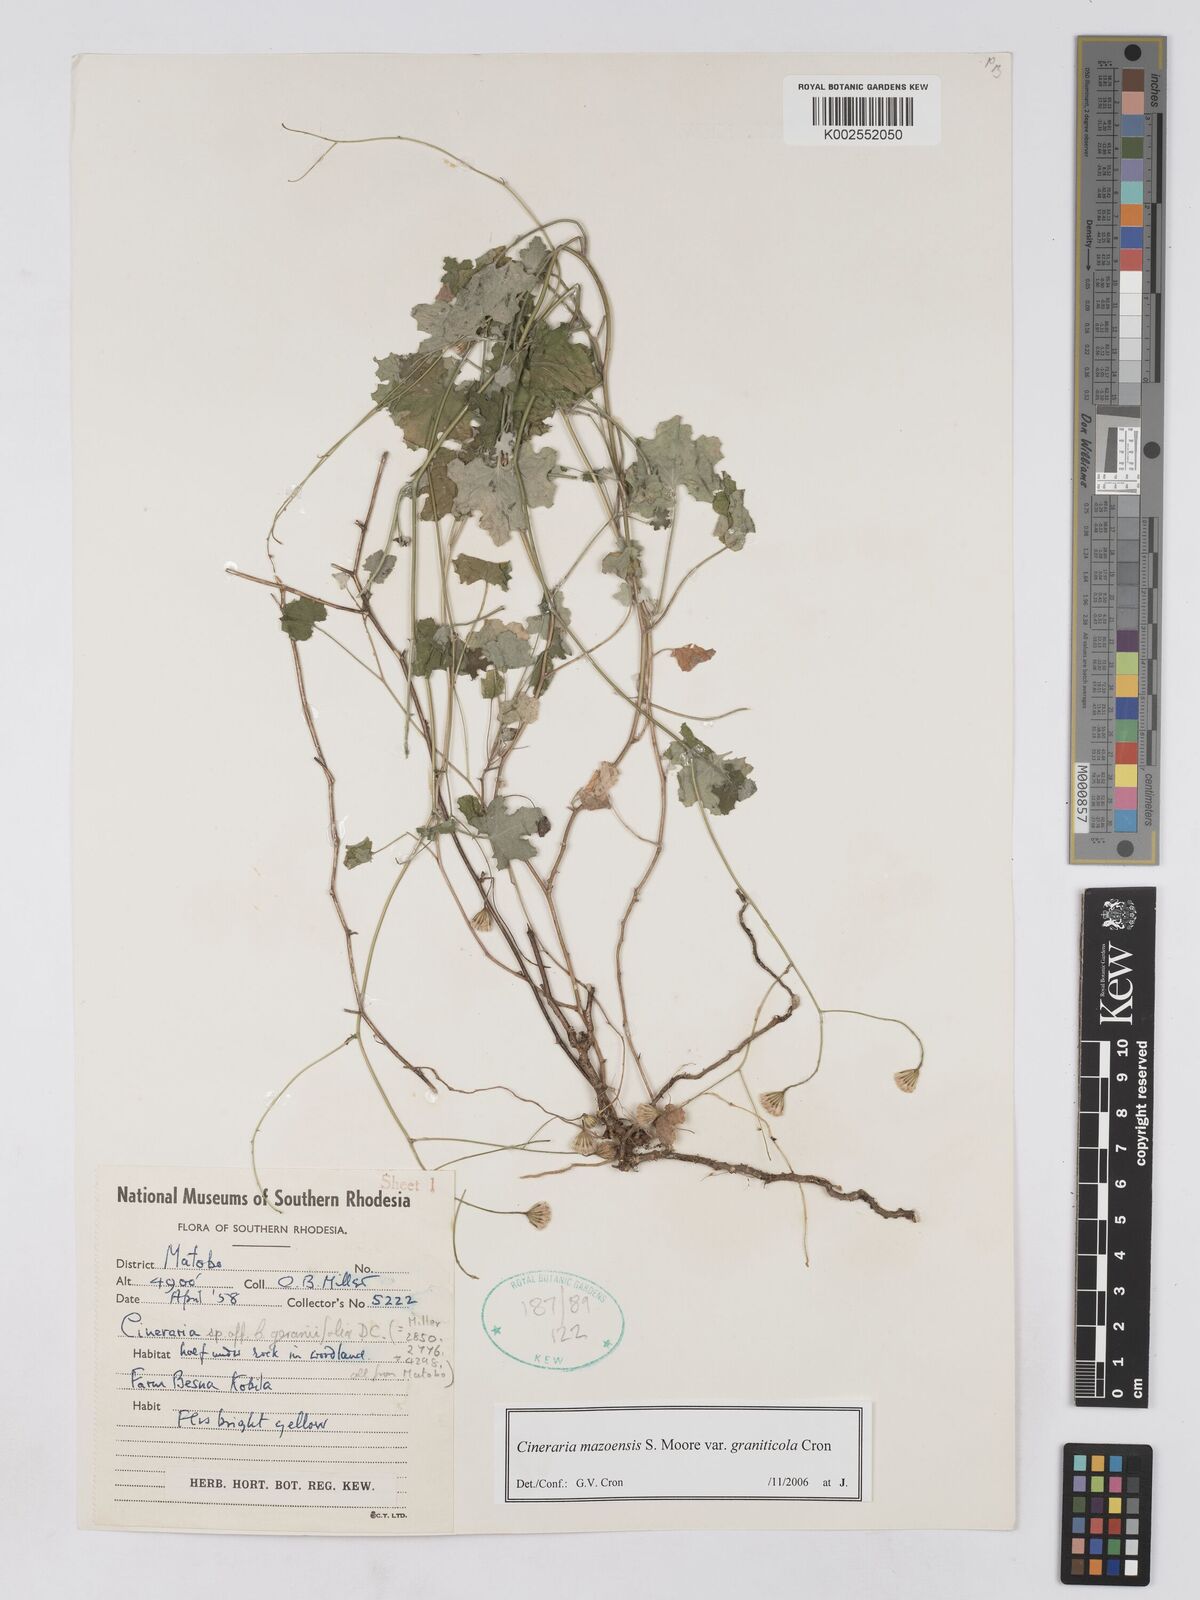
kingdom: Plantae
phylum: Tracheophyta
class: Magnoliopsida
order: Asterales
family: Asteraceae
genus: Cineraria
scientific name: Cineraria mazoensis
